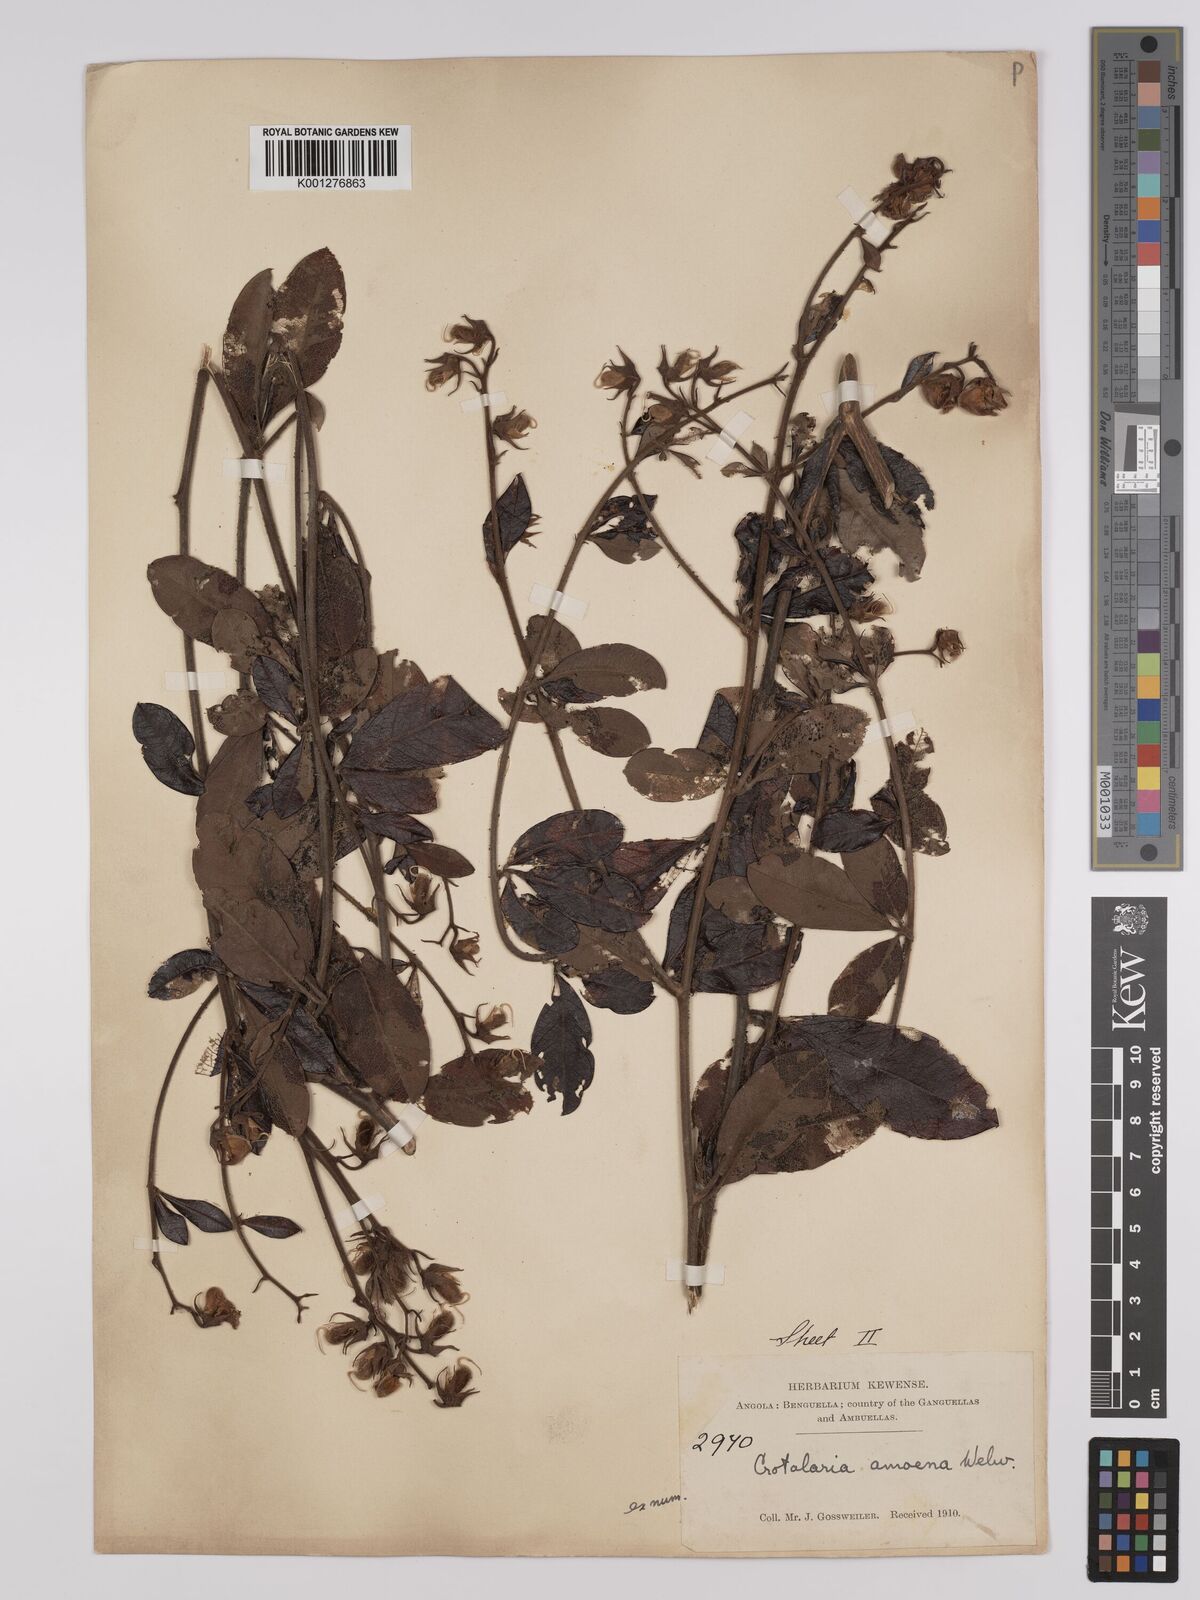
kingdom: Plantae
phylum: Tracheophyta
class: Magnoliopsida
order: Fabales
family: Fabaceae
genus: Crotalaria
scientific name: Crotalaria amoena
